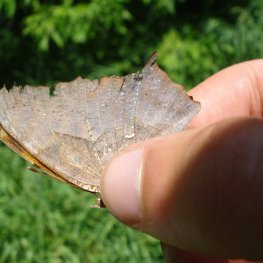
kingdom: Animalia
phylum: Arthropoda
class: Insecta
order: Lepidoptera
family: Nymphalidae
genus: Polygonia
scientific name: Polygonia interrogationis
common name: Question Mark
